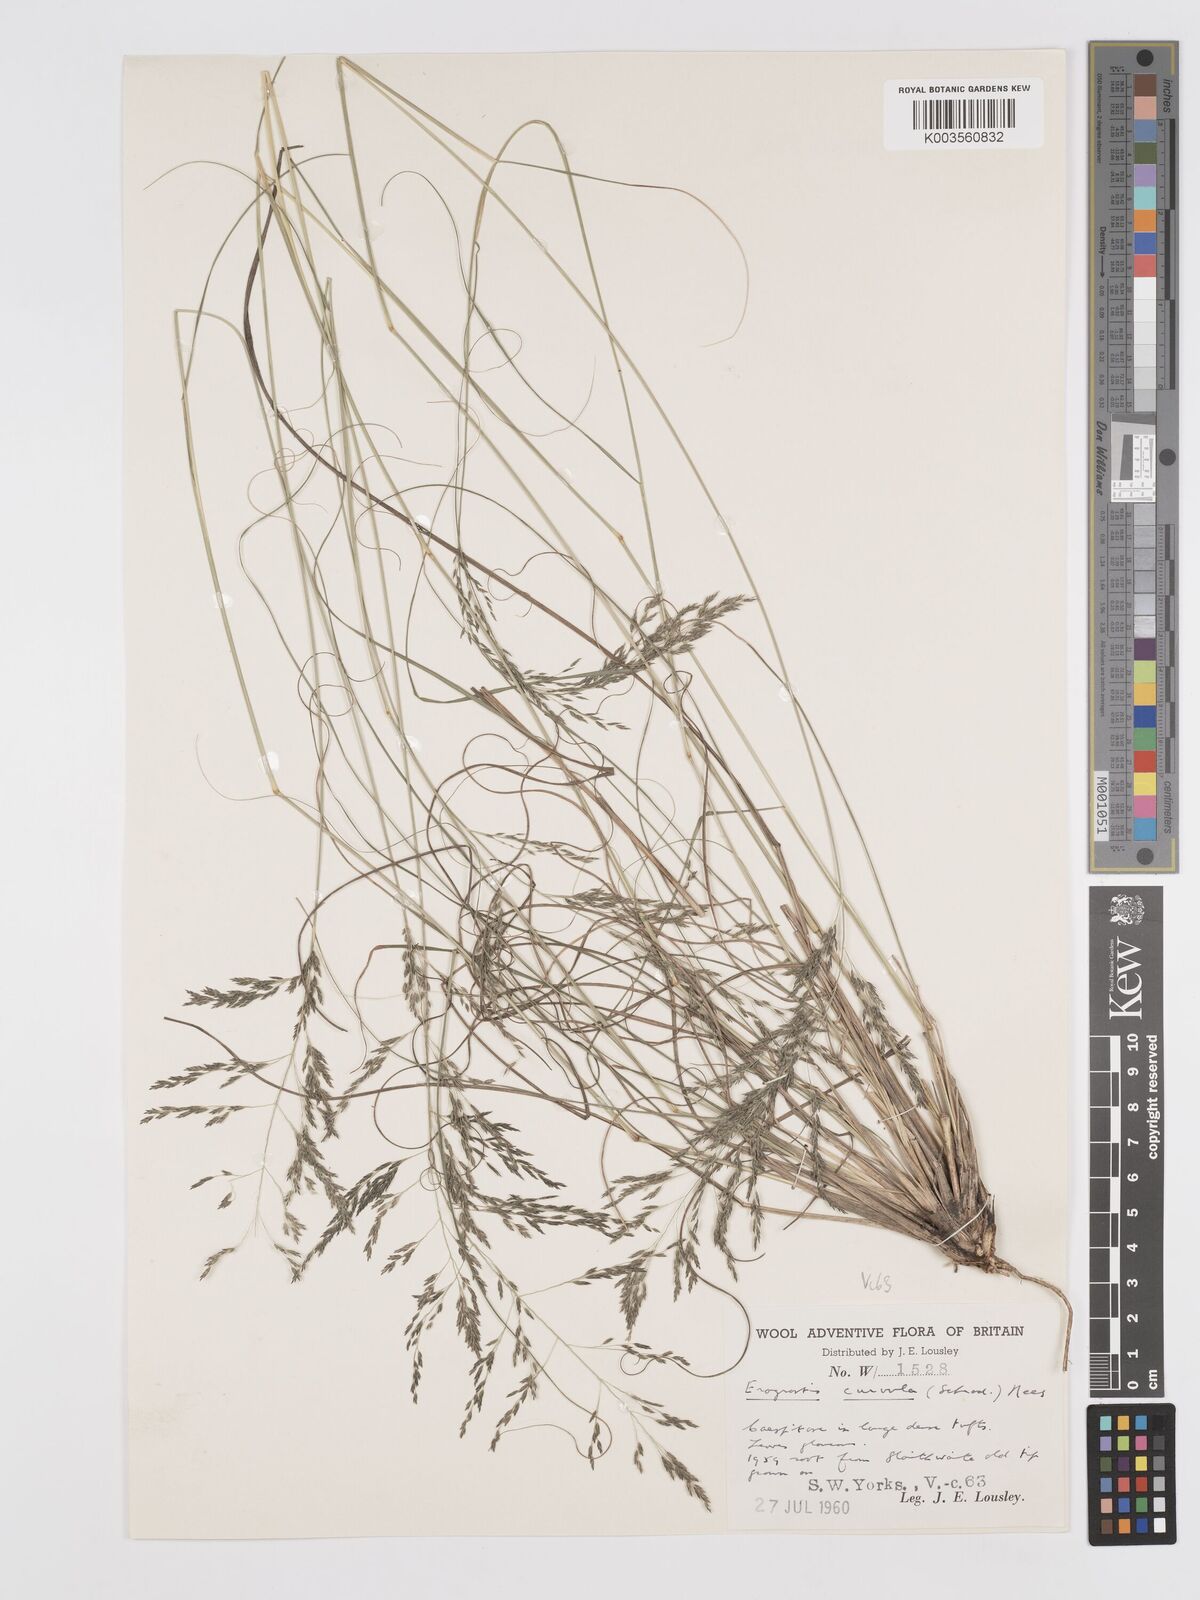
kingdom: Plantae
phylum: Tracheophyta
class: Liliopsida
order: Poales
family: Poaceae
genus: Eragrostis
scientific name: Eragrostis curvula
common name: African love-grass
